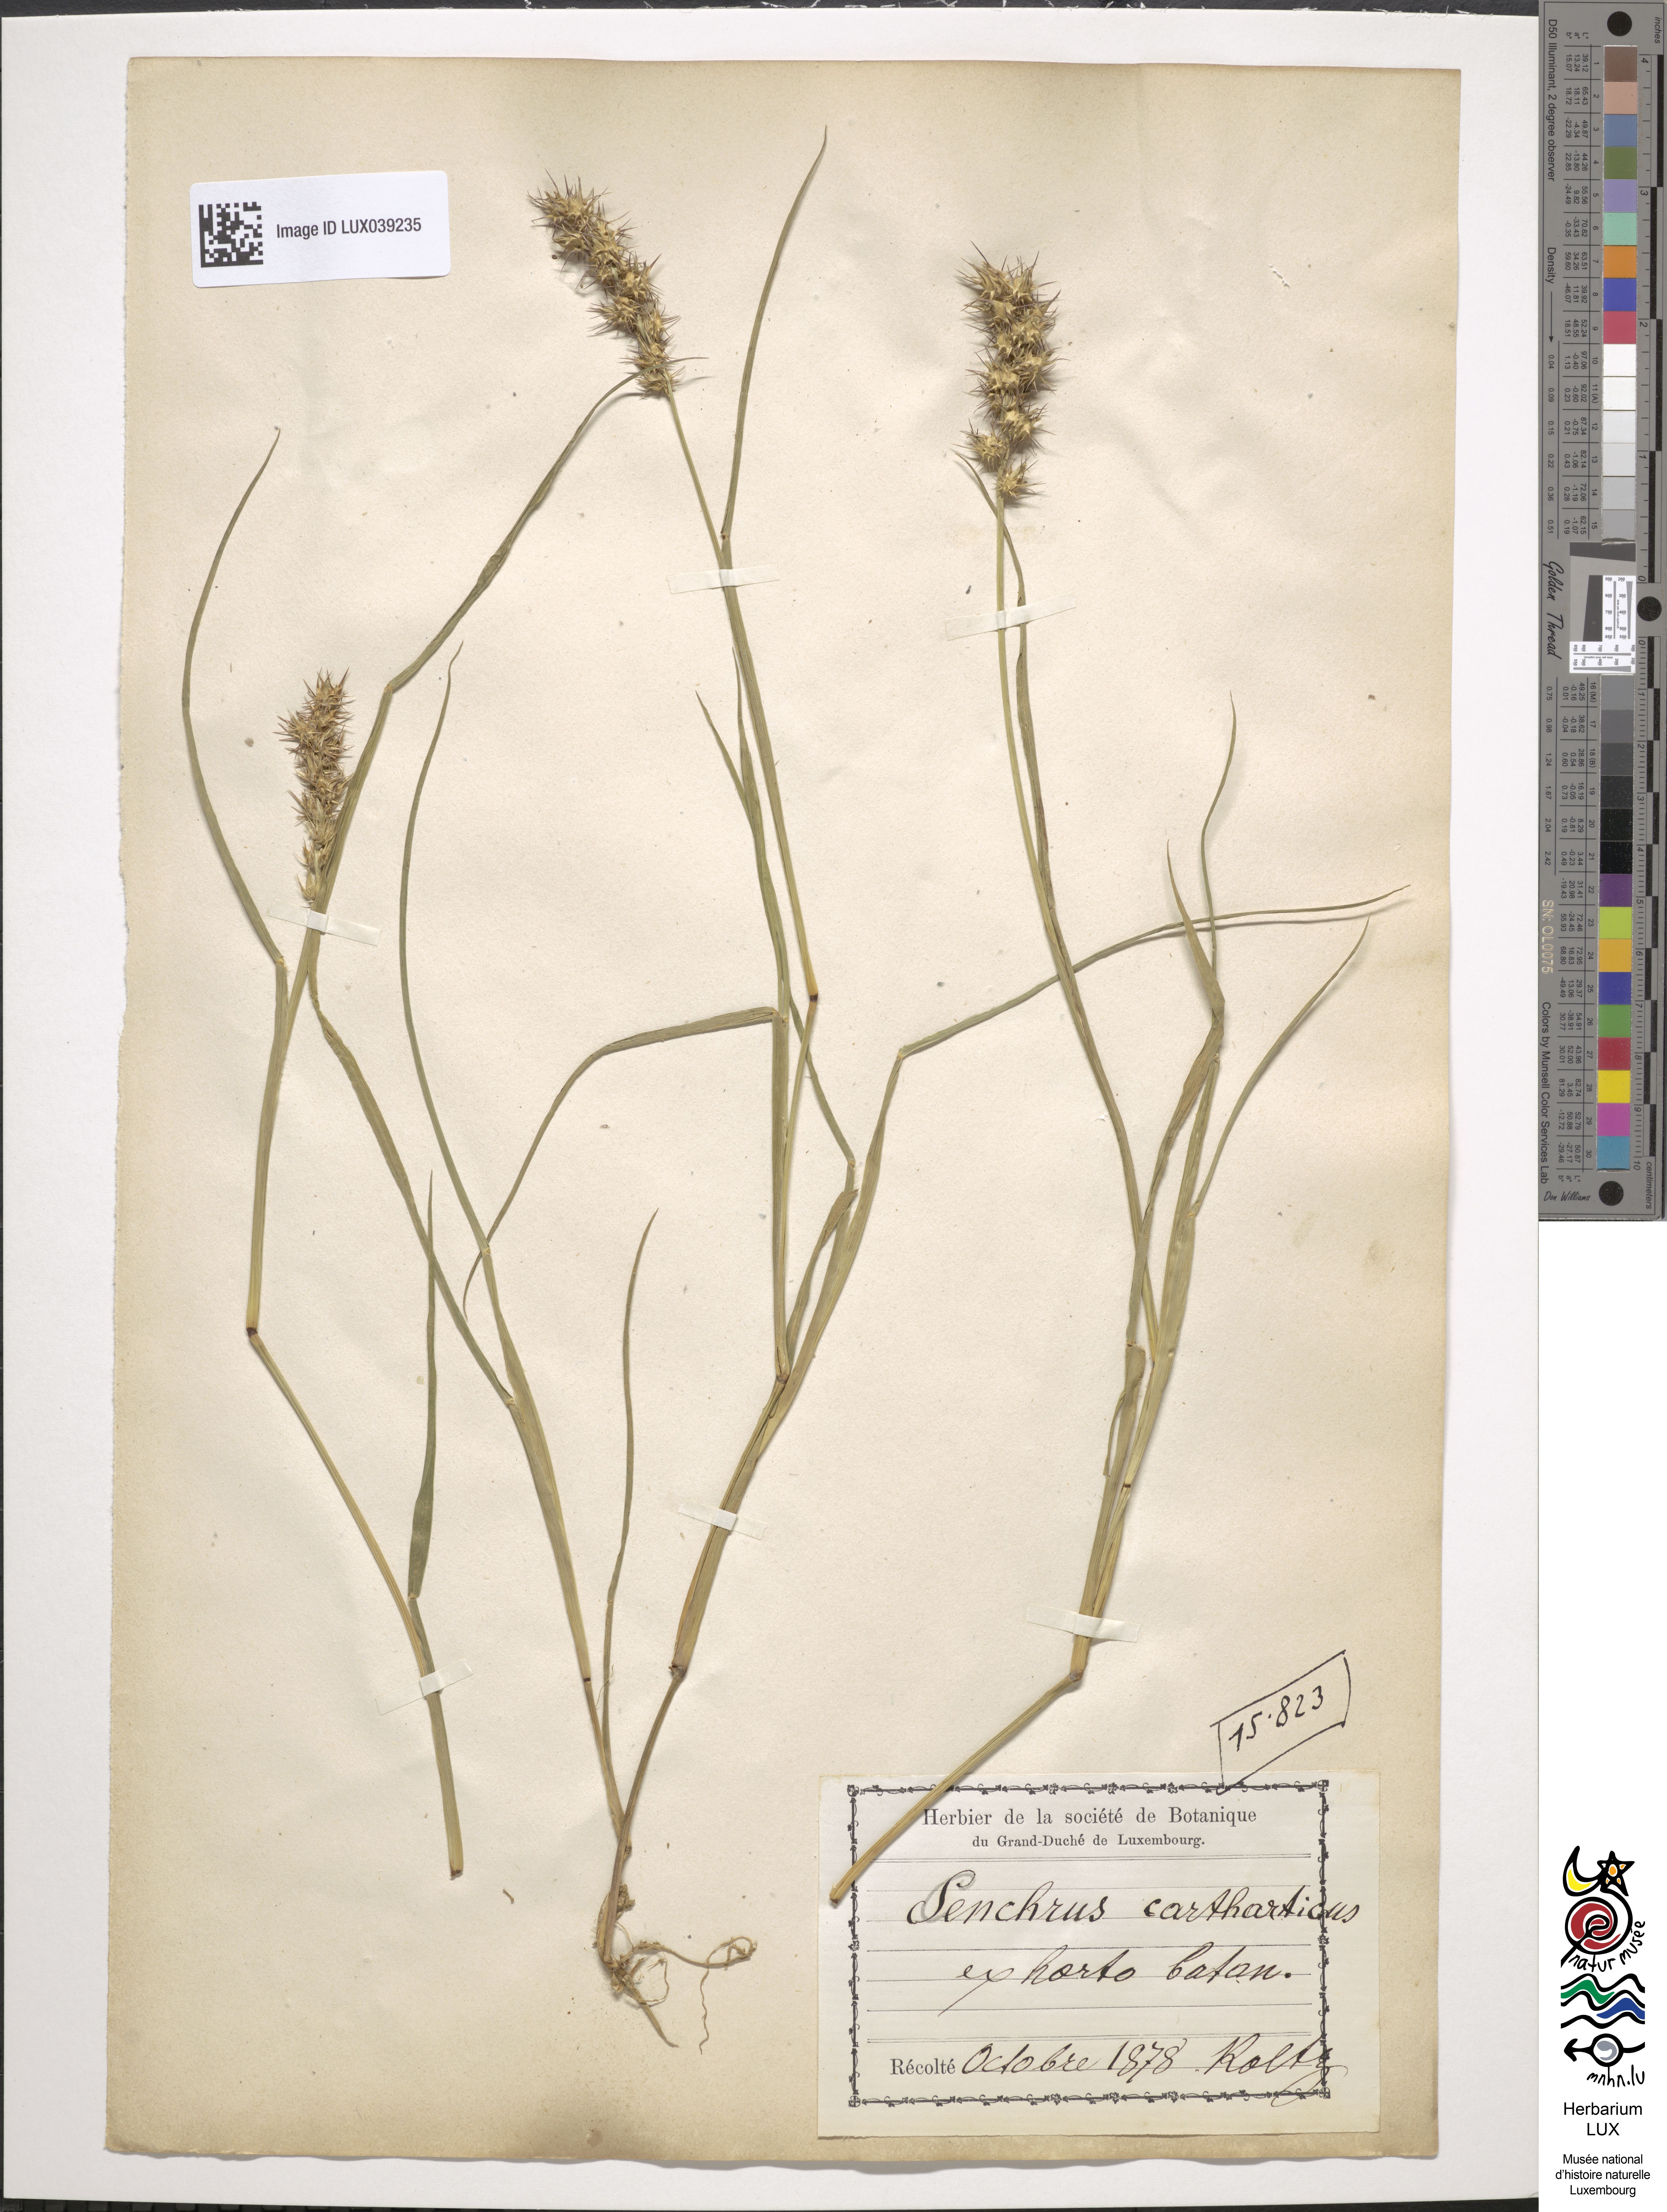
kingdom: Plantae
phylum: Tracheophyta
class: Liliopsida
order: Poales
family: Poaceae
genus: Cenchrus
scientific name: Cenchrus biflorus
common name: Indian sandbur
